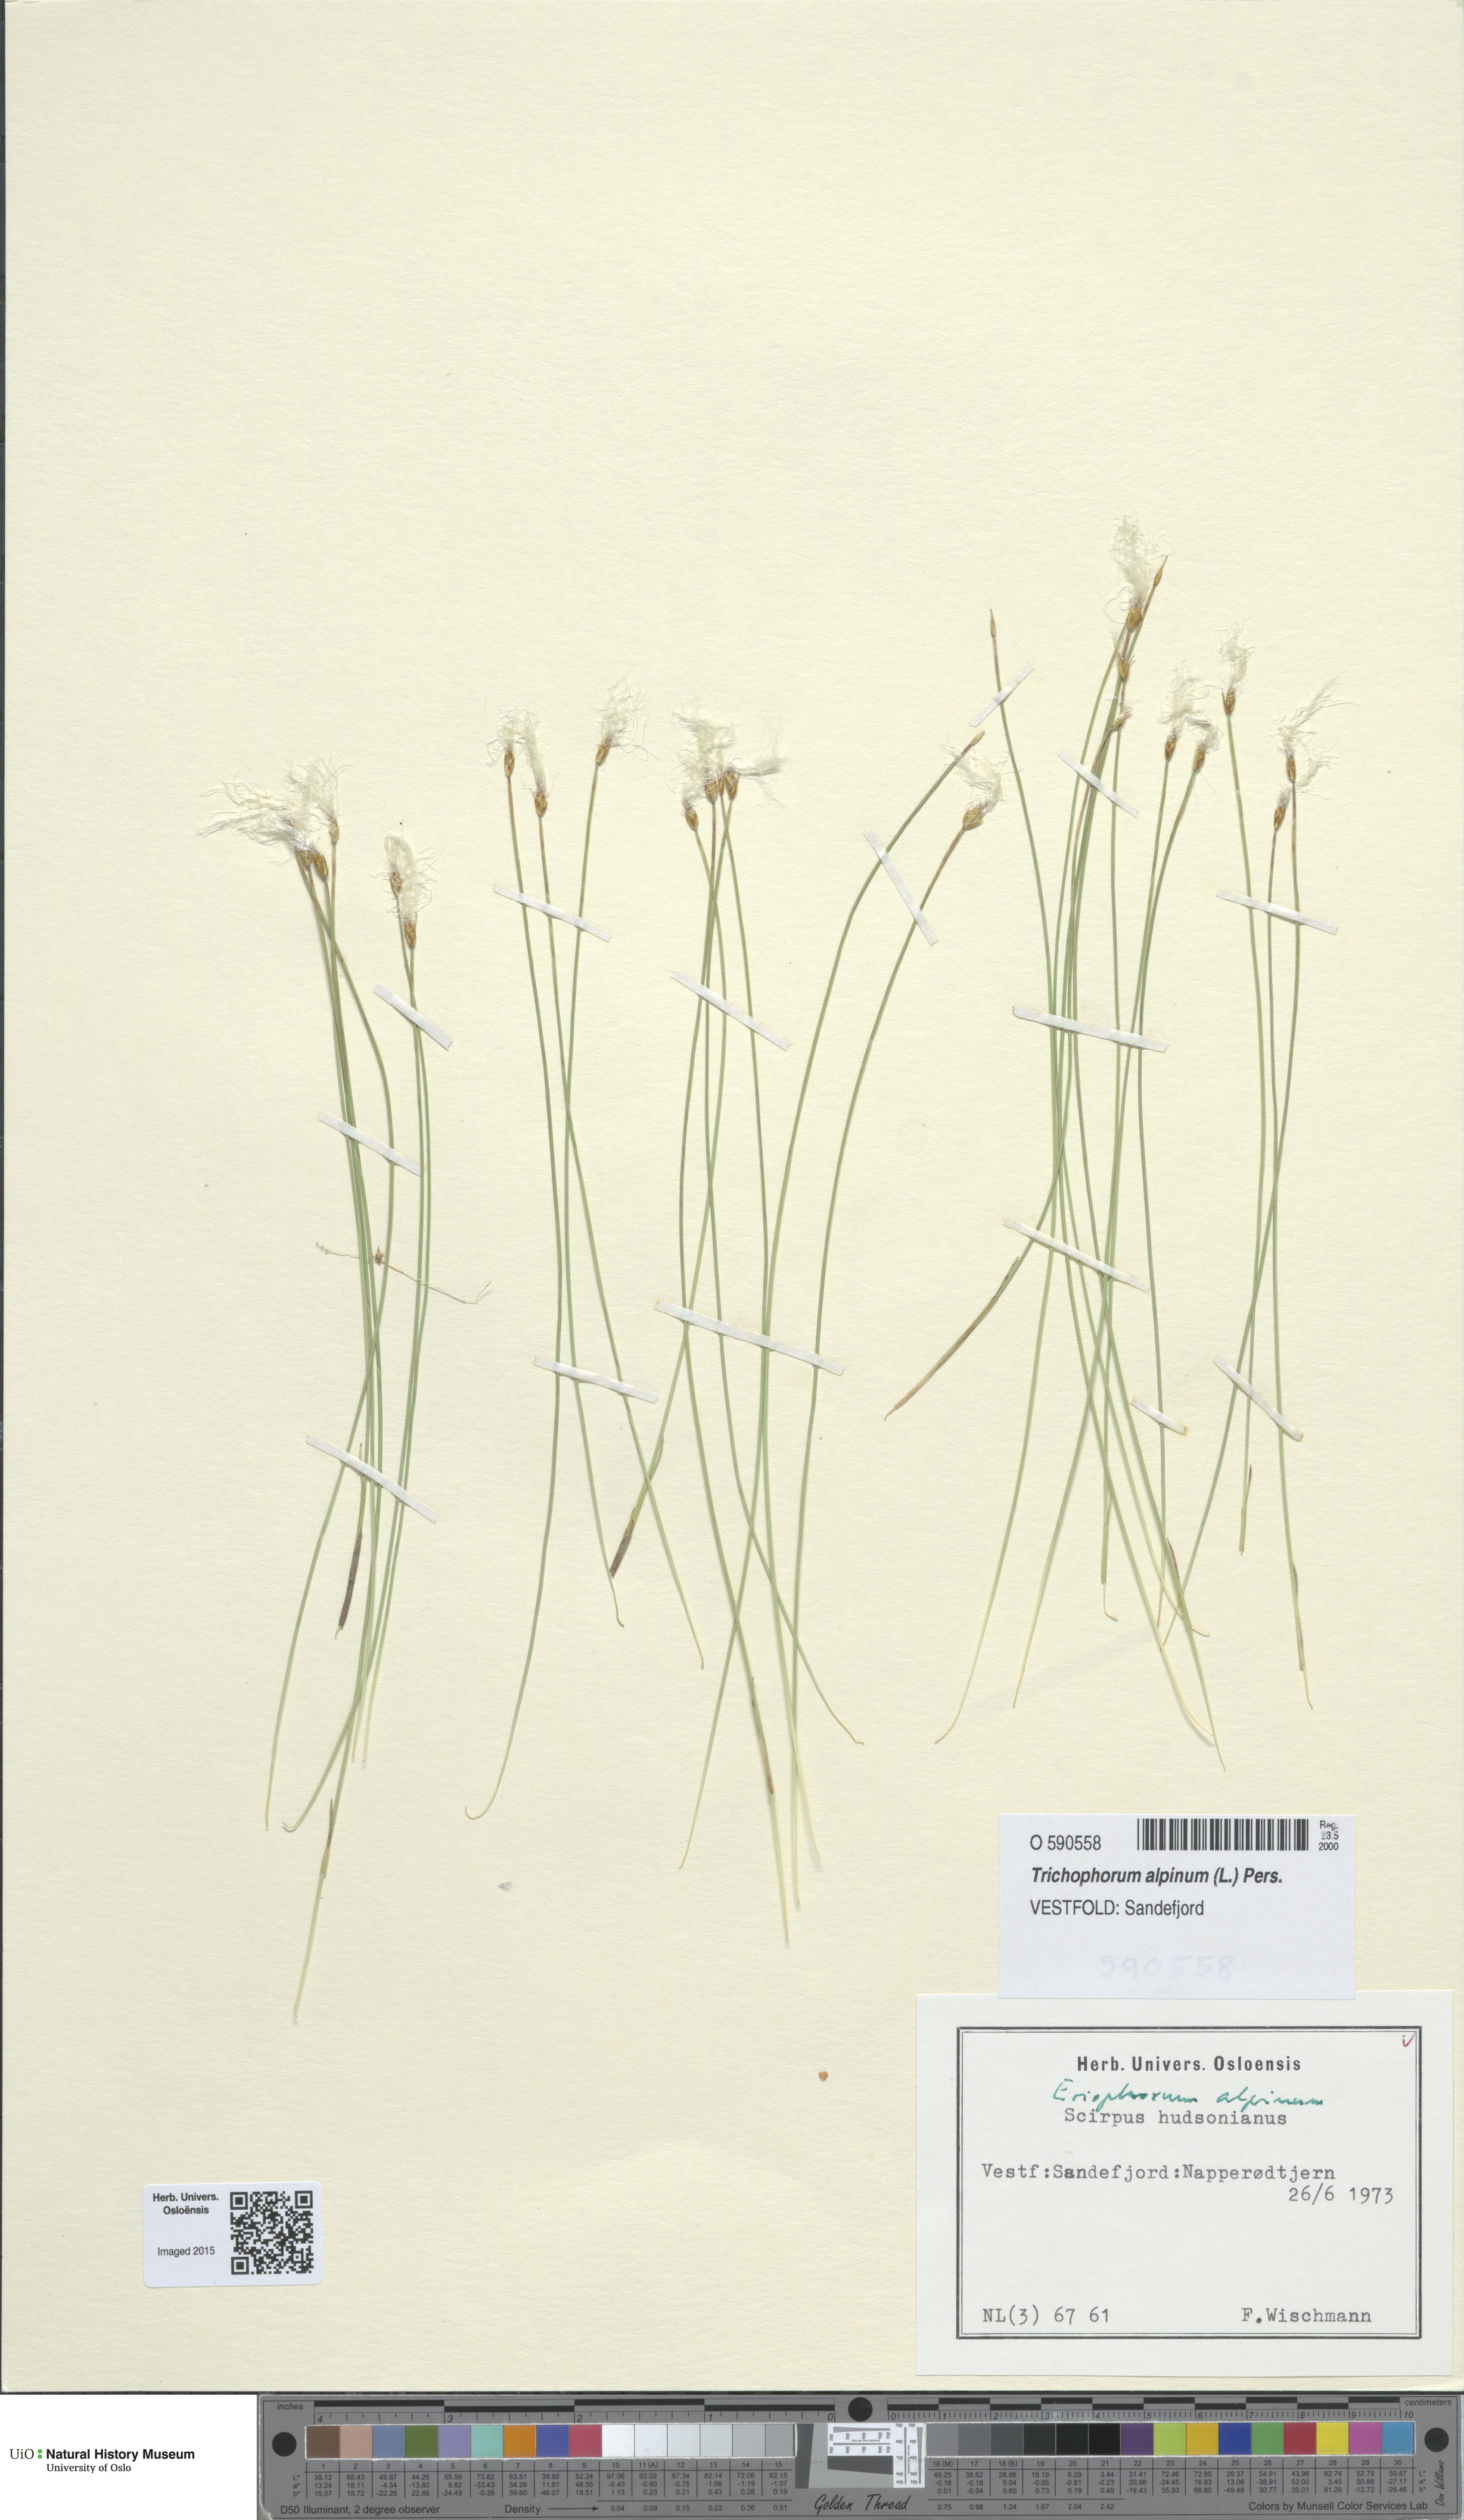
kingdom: Plantae
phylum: Tracheophyta
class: Liliopsida
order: Poales
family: Cyperaceae
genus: Trichophorum
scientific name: Trichophorum alpinum
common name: Alpine bulrush
